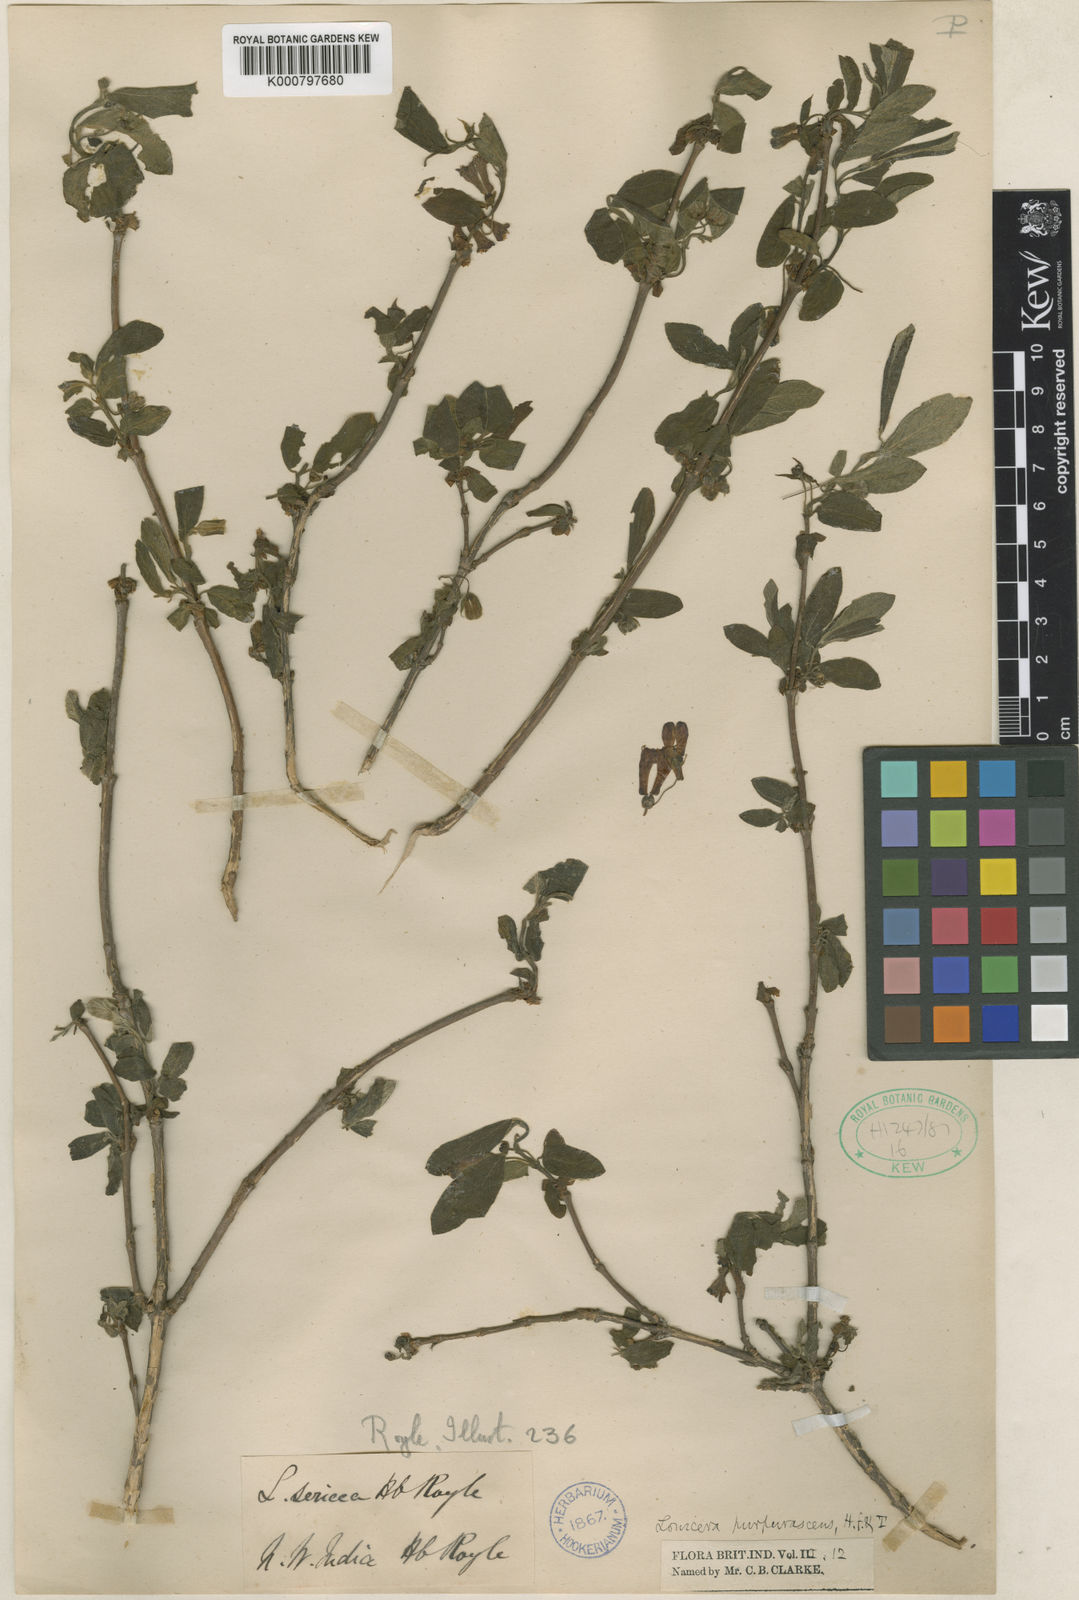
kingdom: Plantae
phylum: Tracheophyta
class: Magnoliopsida
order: Dipsacales
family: Caprifoliaceae
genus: Lonicera
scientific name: Lonicera
